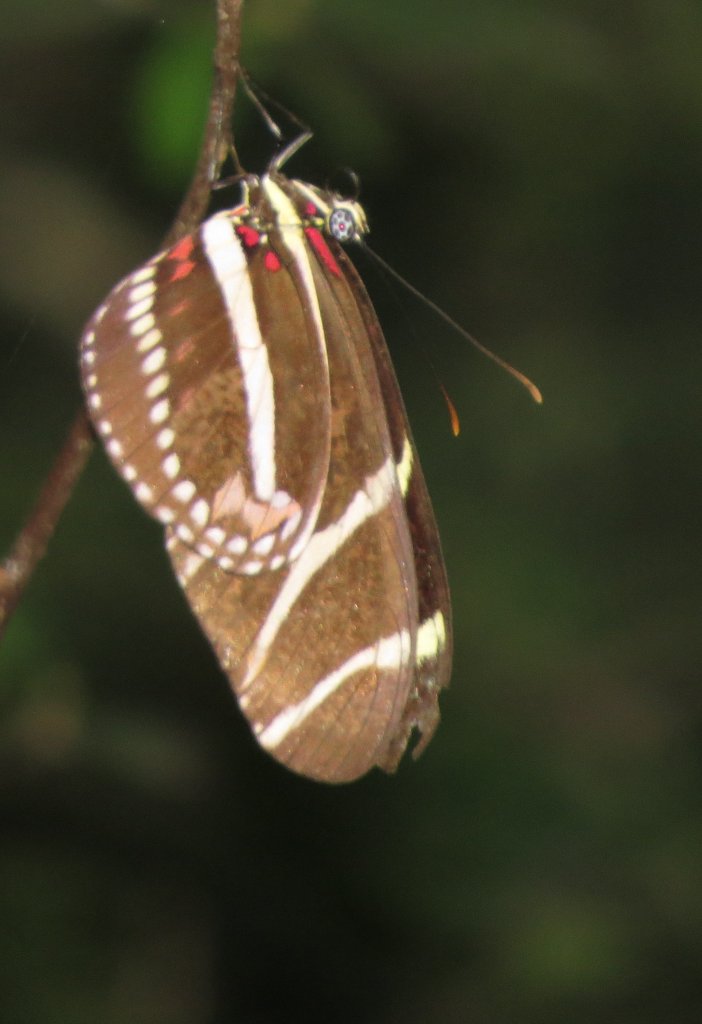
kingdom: Animalia
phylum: Arthropoda
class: Insecta
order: Lepidoptera
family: Nymphalidae
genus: Heliconius
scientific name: Heliconius charithonia
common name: Zebra Longwing
